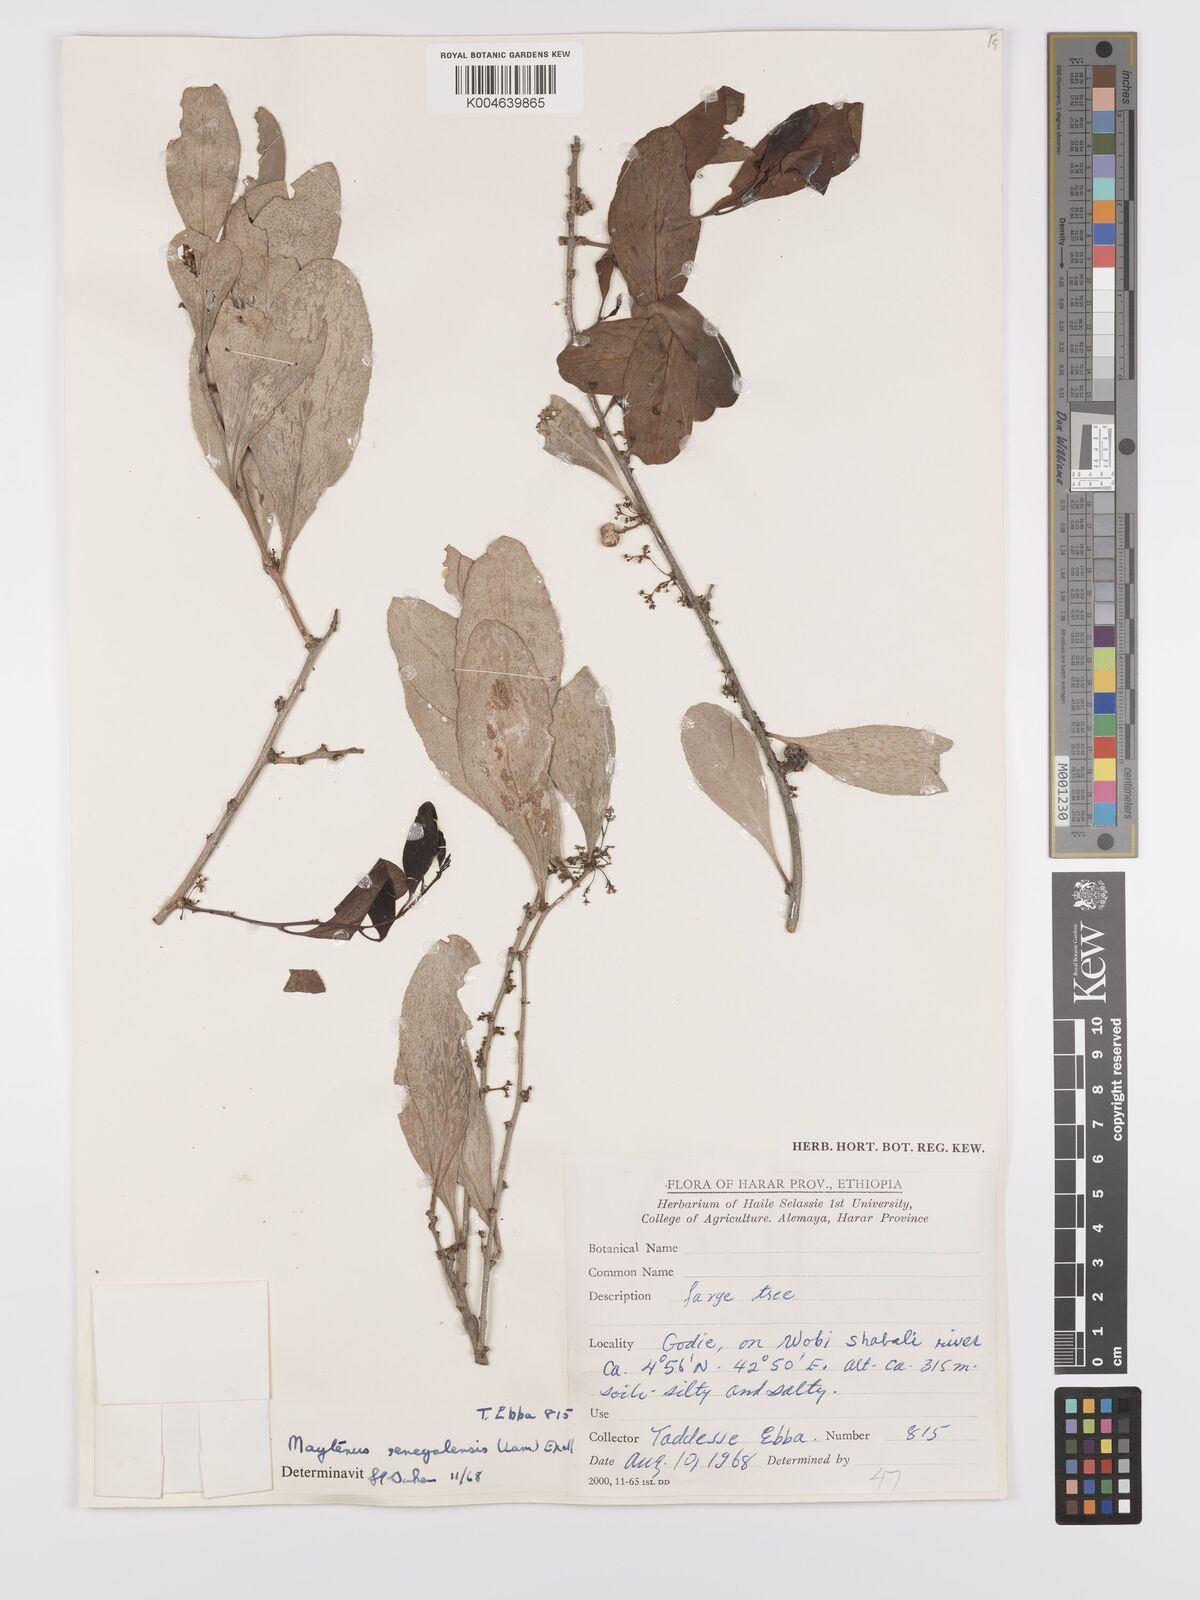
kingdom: Plantae
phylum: Tracheophyta
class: Magnoliopsida
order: Celastrales
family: Celastraceae
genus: Gymnosporia
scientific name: Gymnosporia senegalensis
